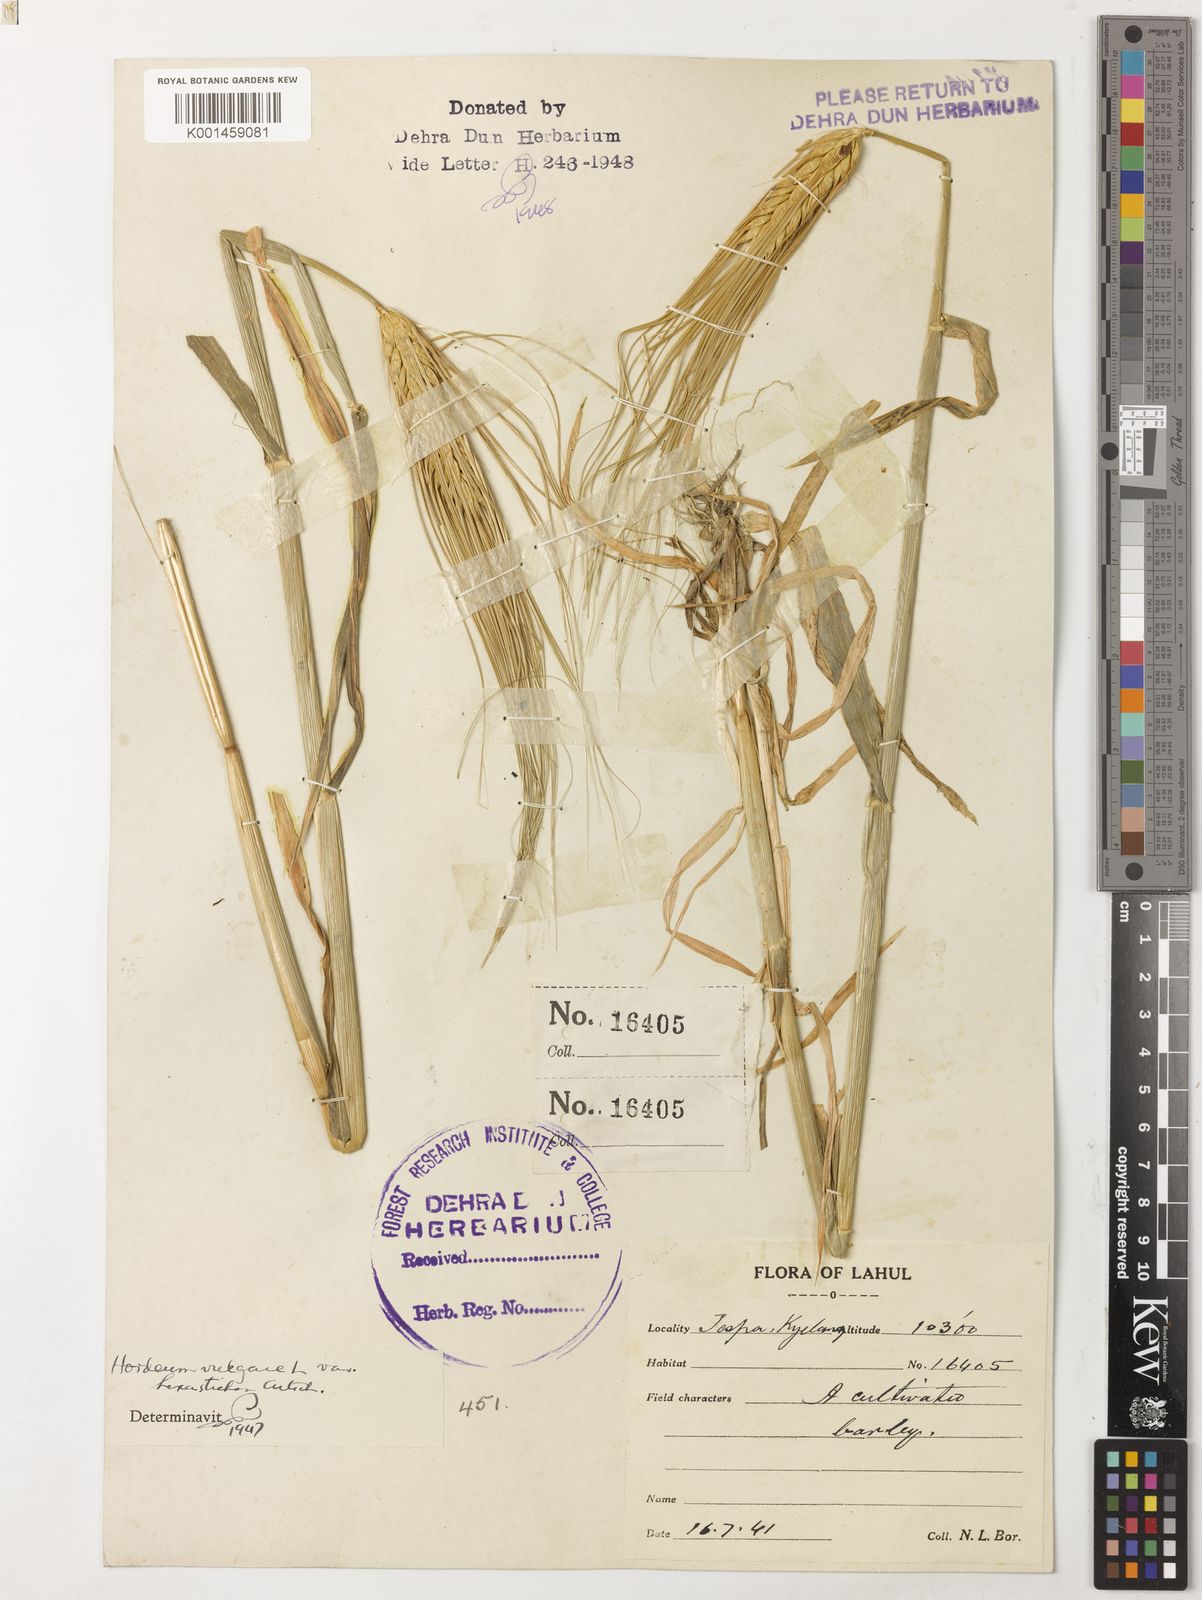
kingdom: Plantae
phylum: Tracheophyta
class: Liliopsida
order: Poales
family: Poaceae
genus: Hordeum
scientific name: Hordeum vulgare
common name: Common barley
